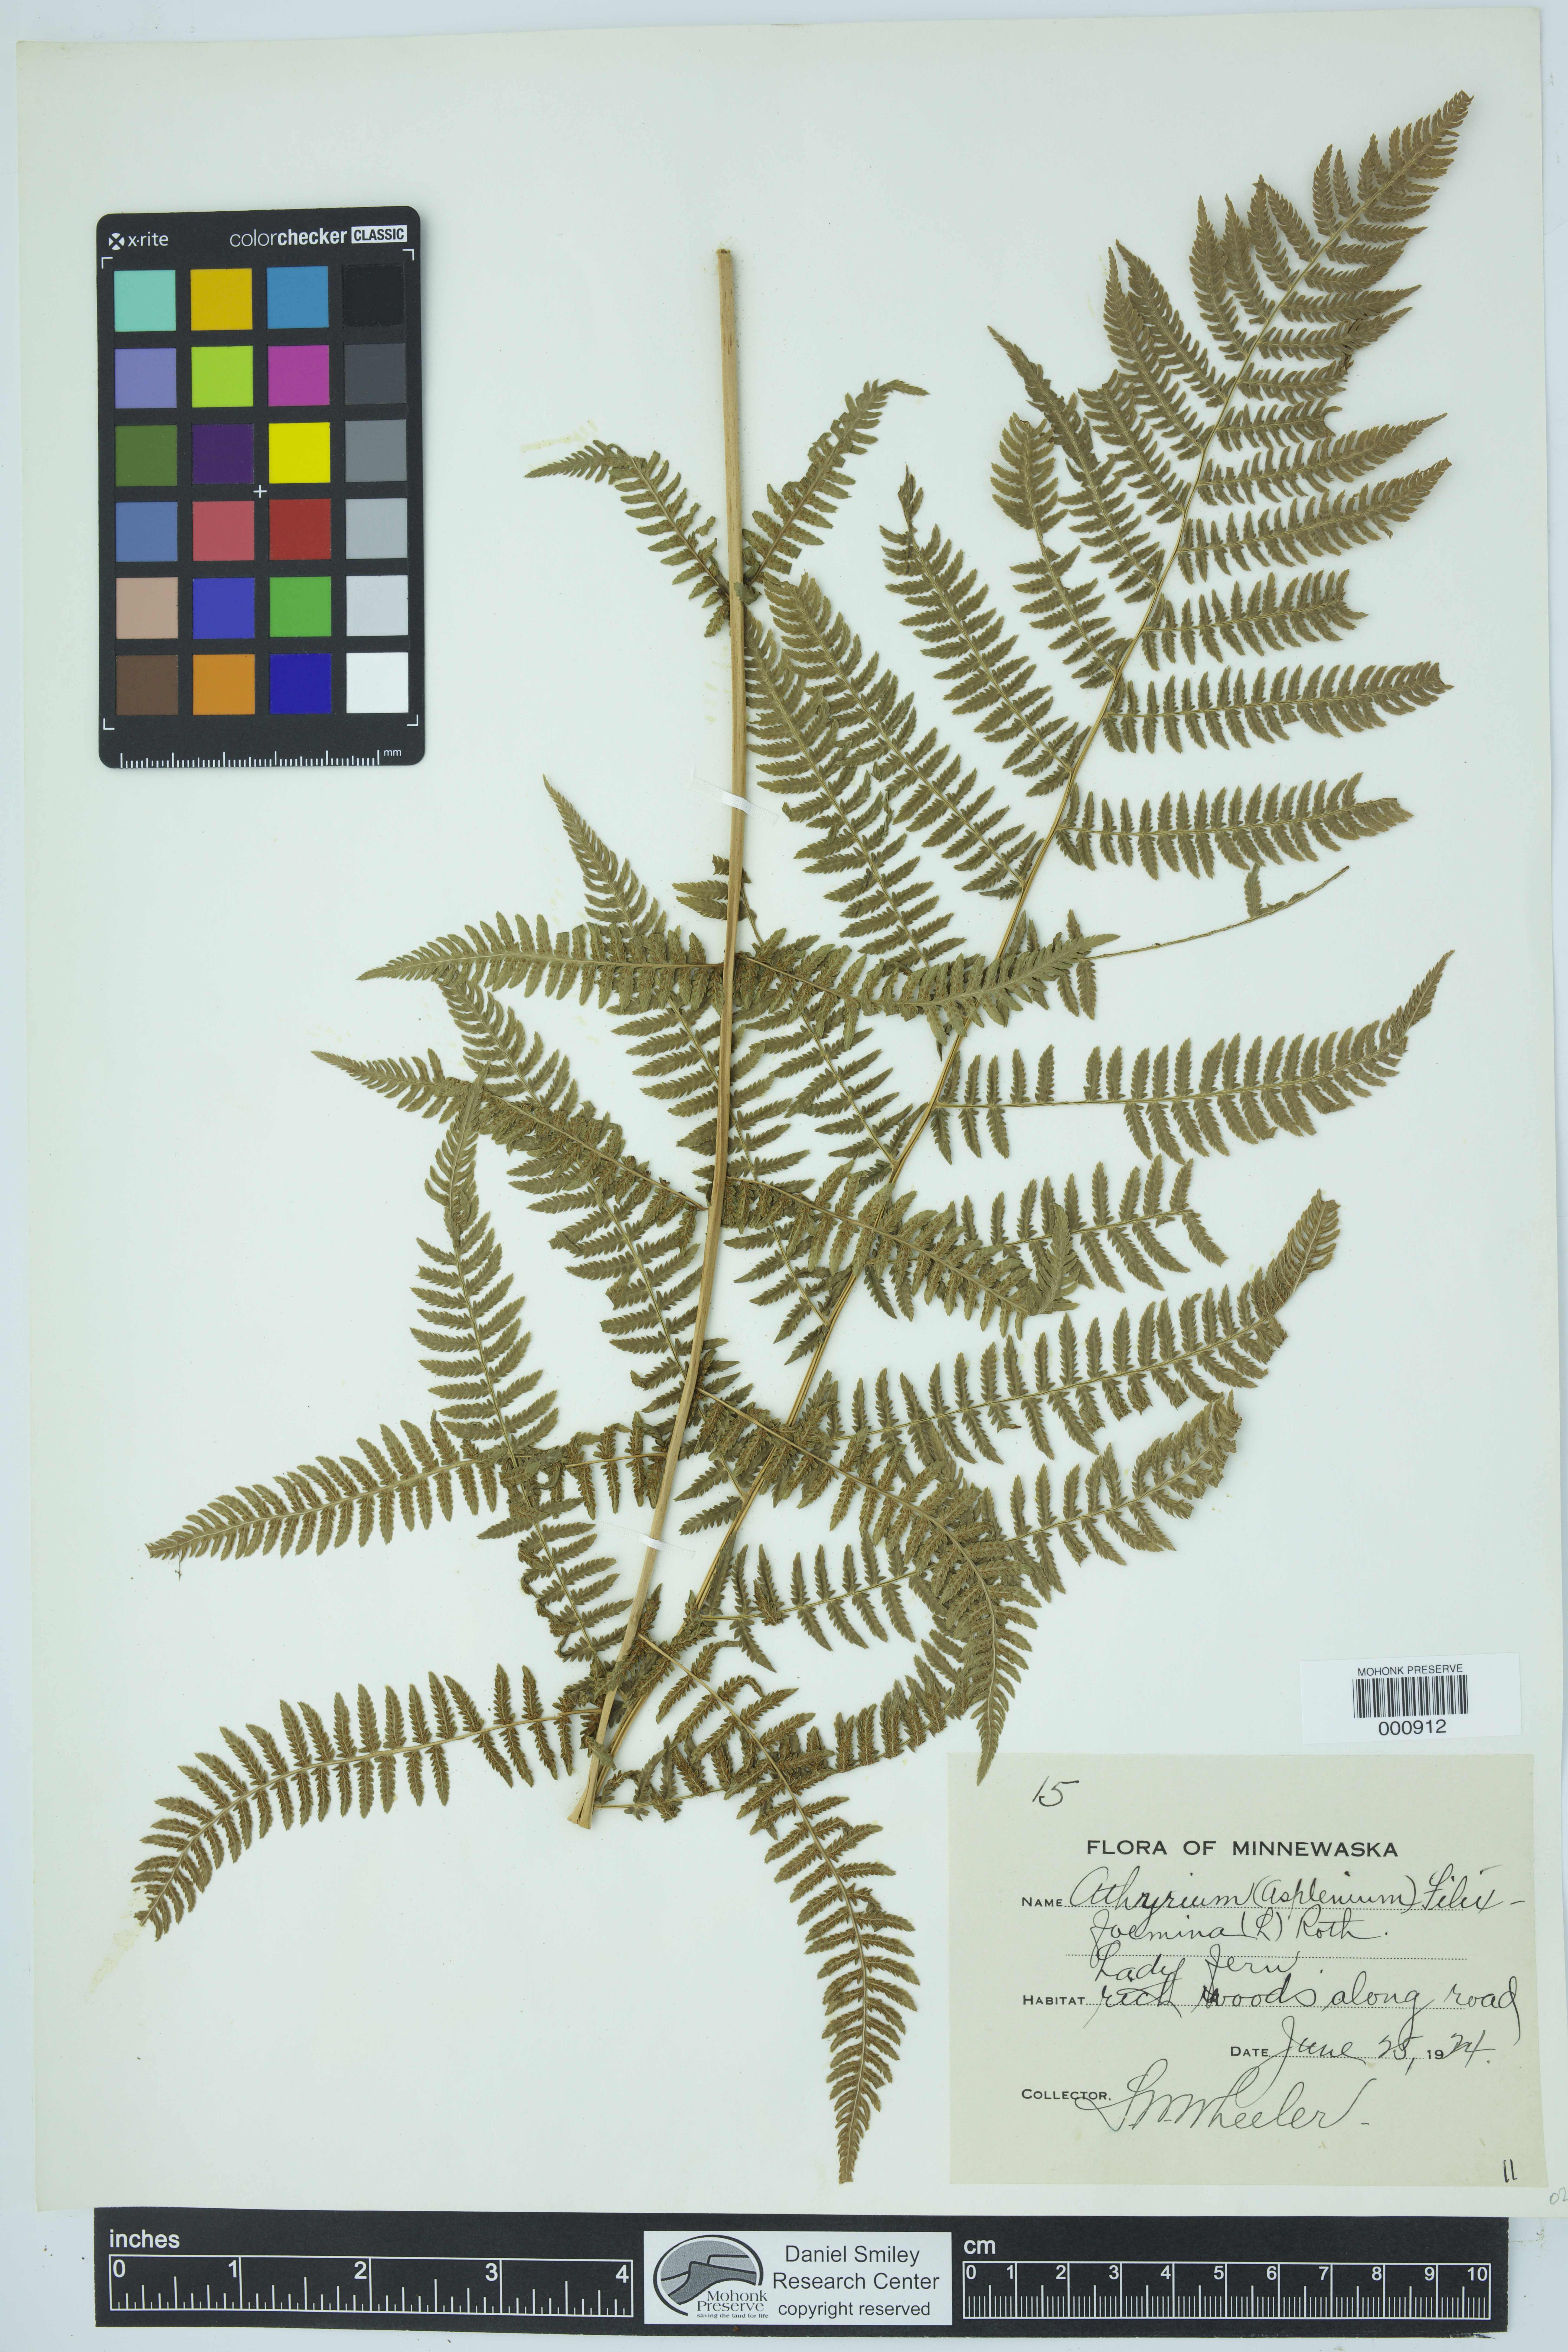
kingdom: Plantae
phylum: Tracheophyta
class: Polypodiopsida
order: Polypodiales
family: Athyriaceae
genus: Athyrium
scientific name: Athyrium filix-femina
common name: Lady fern
